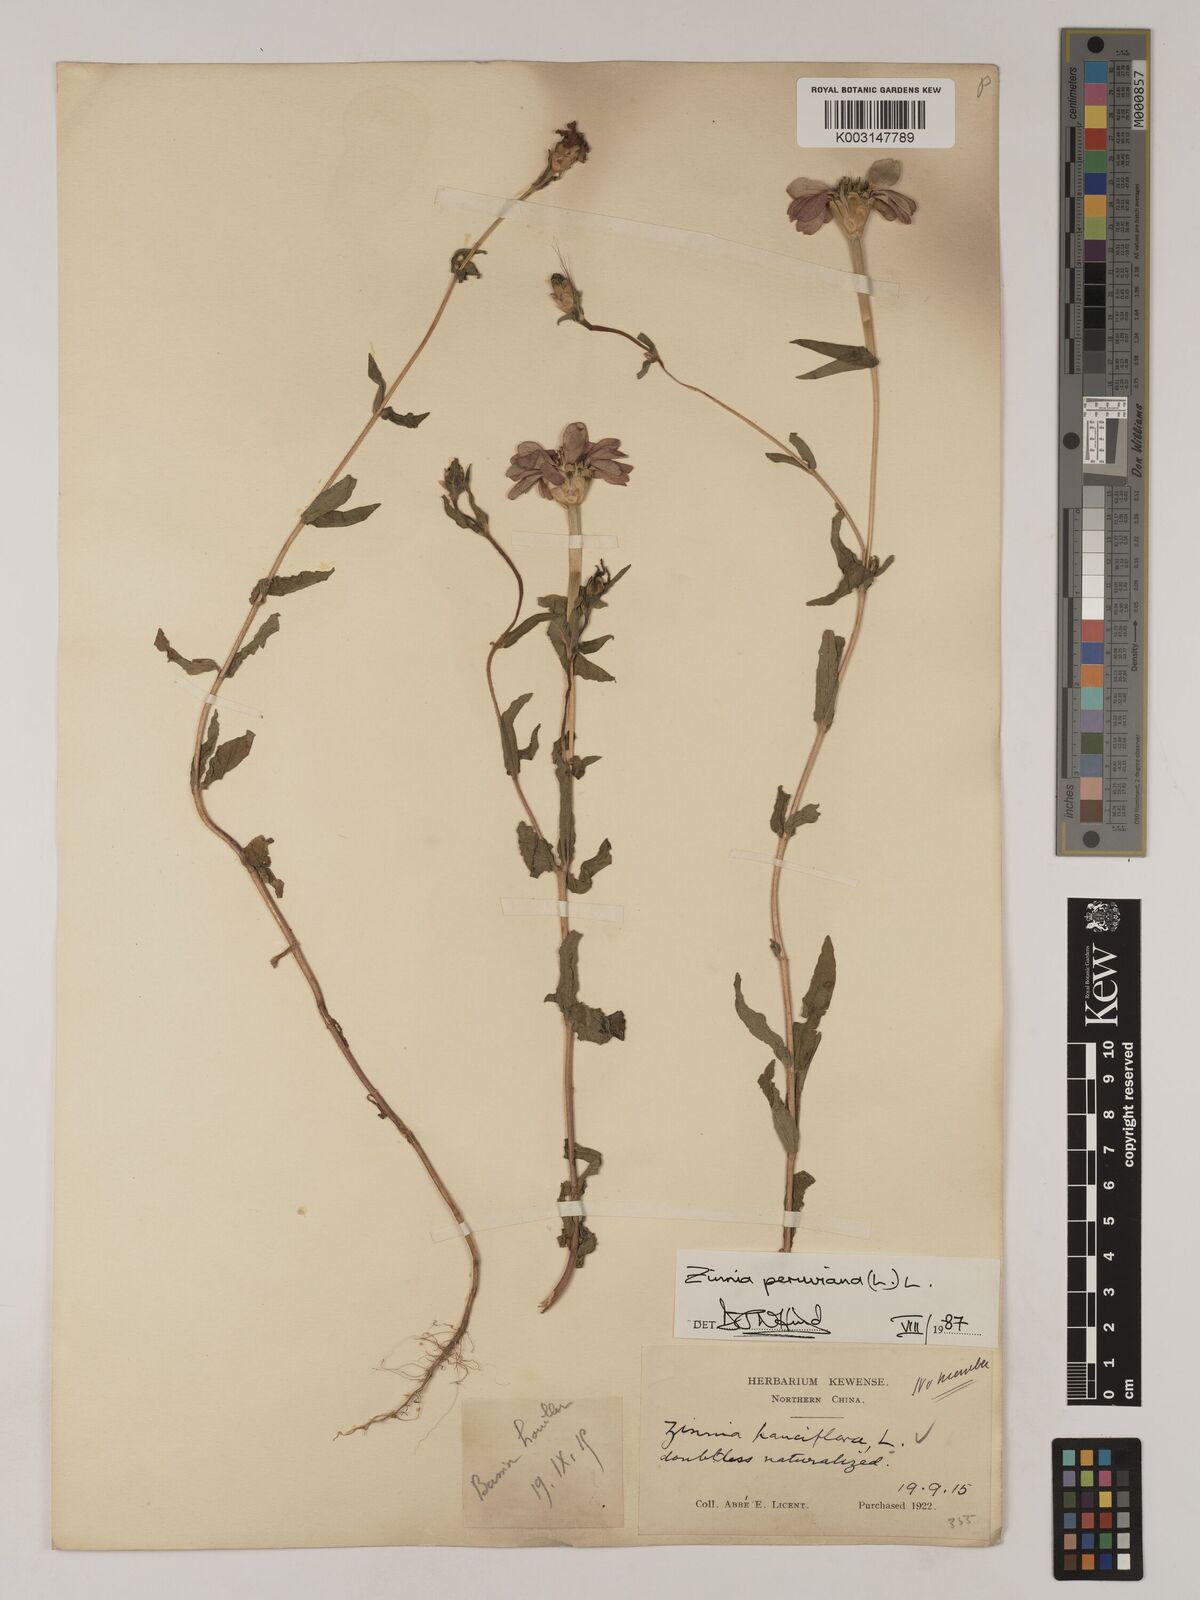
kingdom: Plantae
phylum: Tracheophyta
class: Magnoliopsida
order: Asterales
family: Asteraceae
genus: Zinnia
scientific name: Zinnia peruviana
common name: Peruvian zinnia
